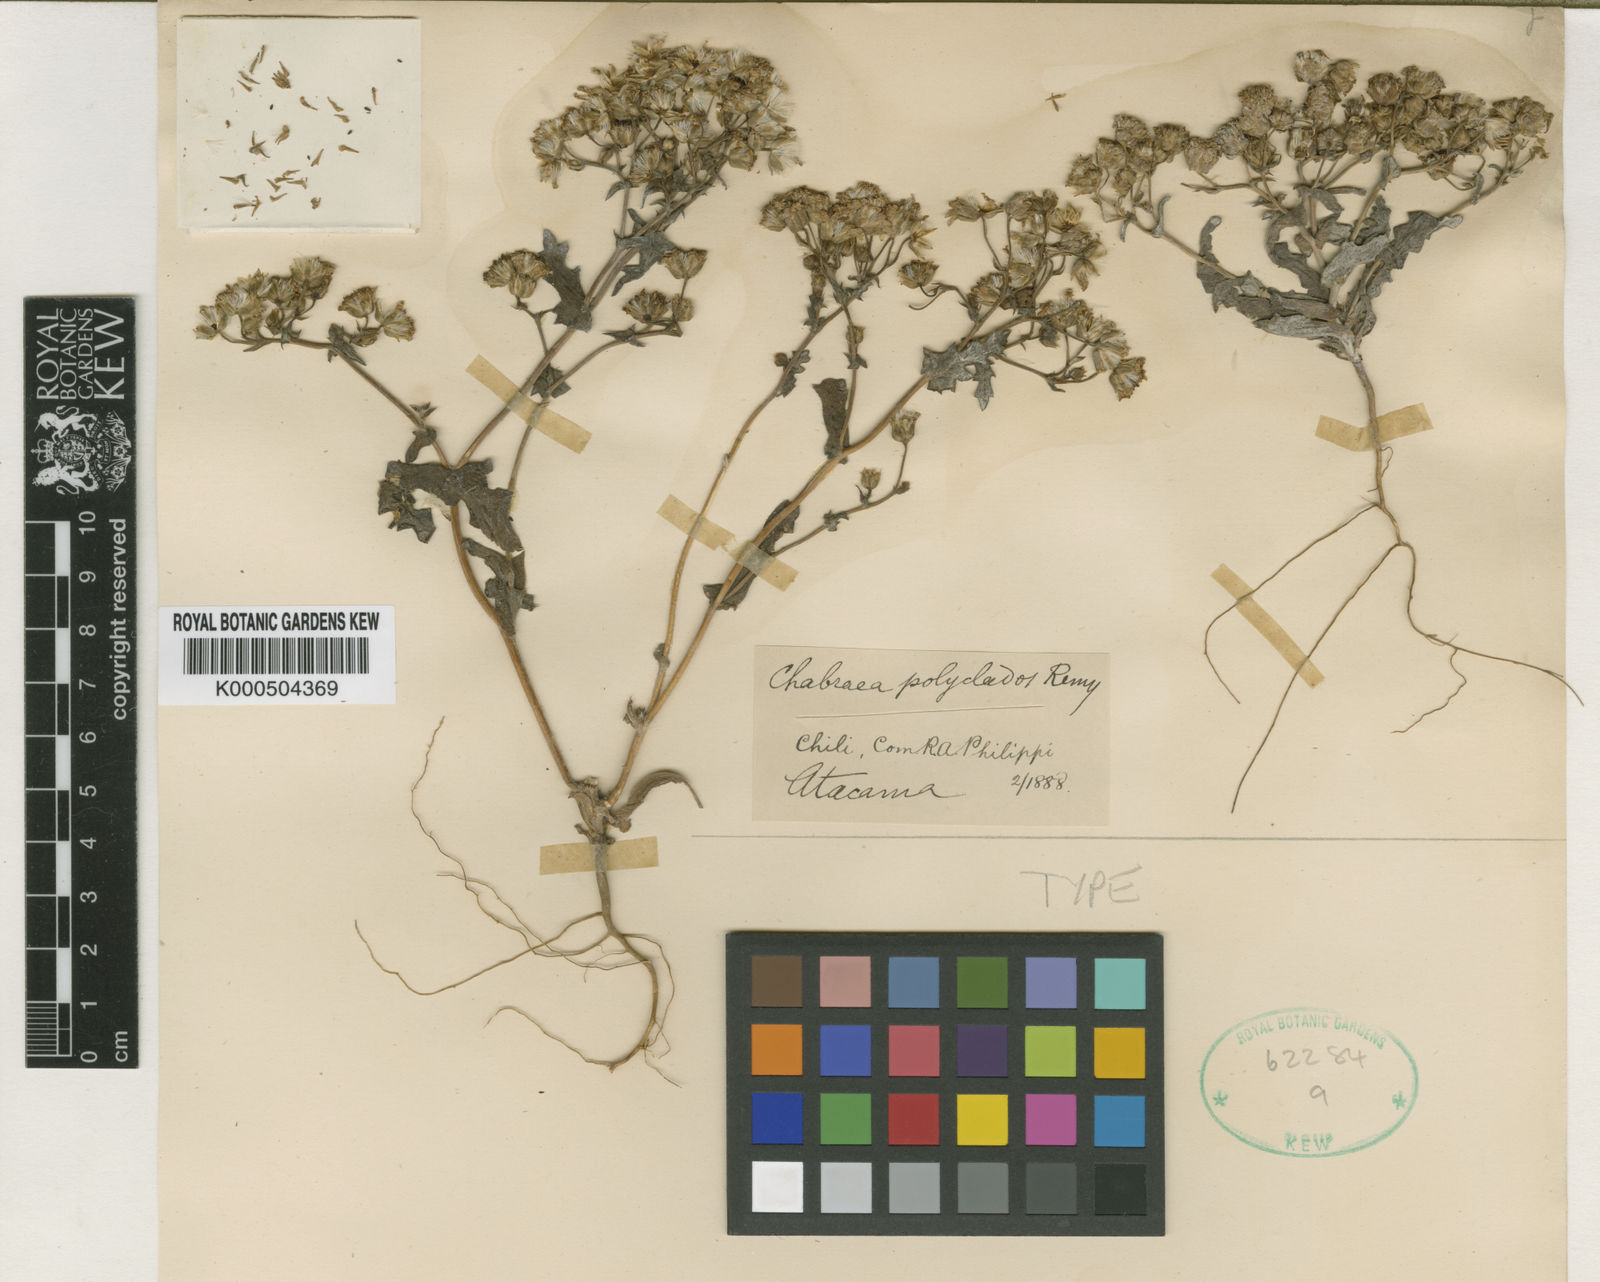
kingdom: Plantae
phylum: Tracheophyta
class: Magnoliopsida
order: Asterales
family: Asteraceae
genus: Leucheria
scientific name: Leucheria polyclados
